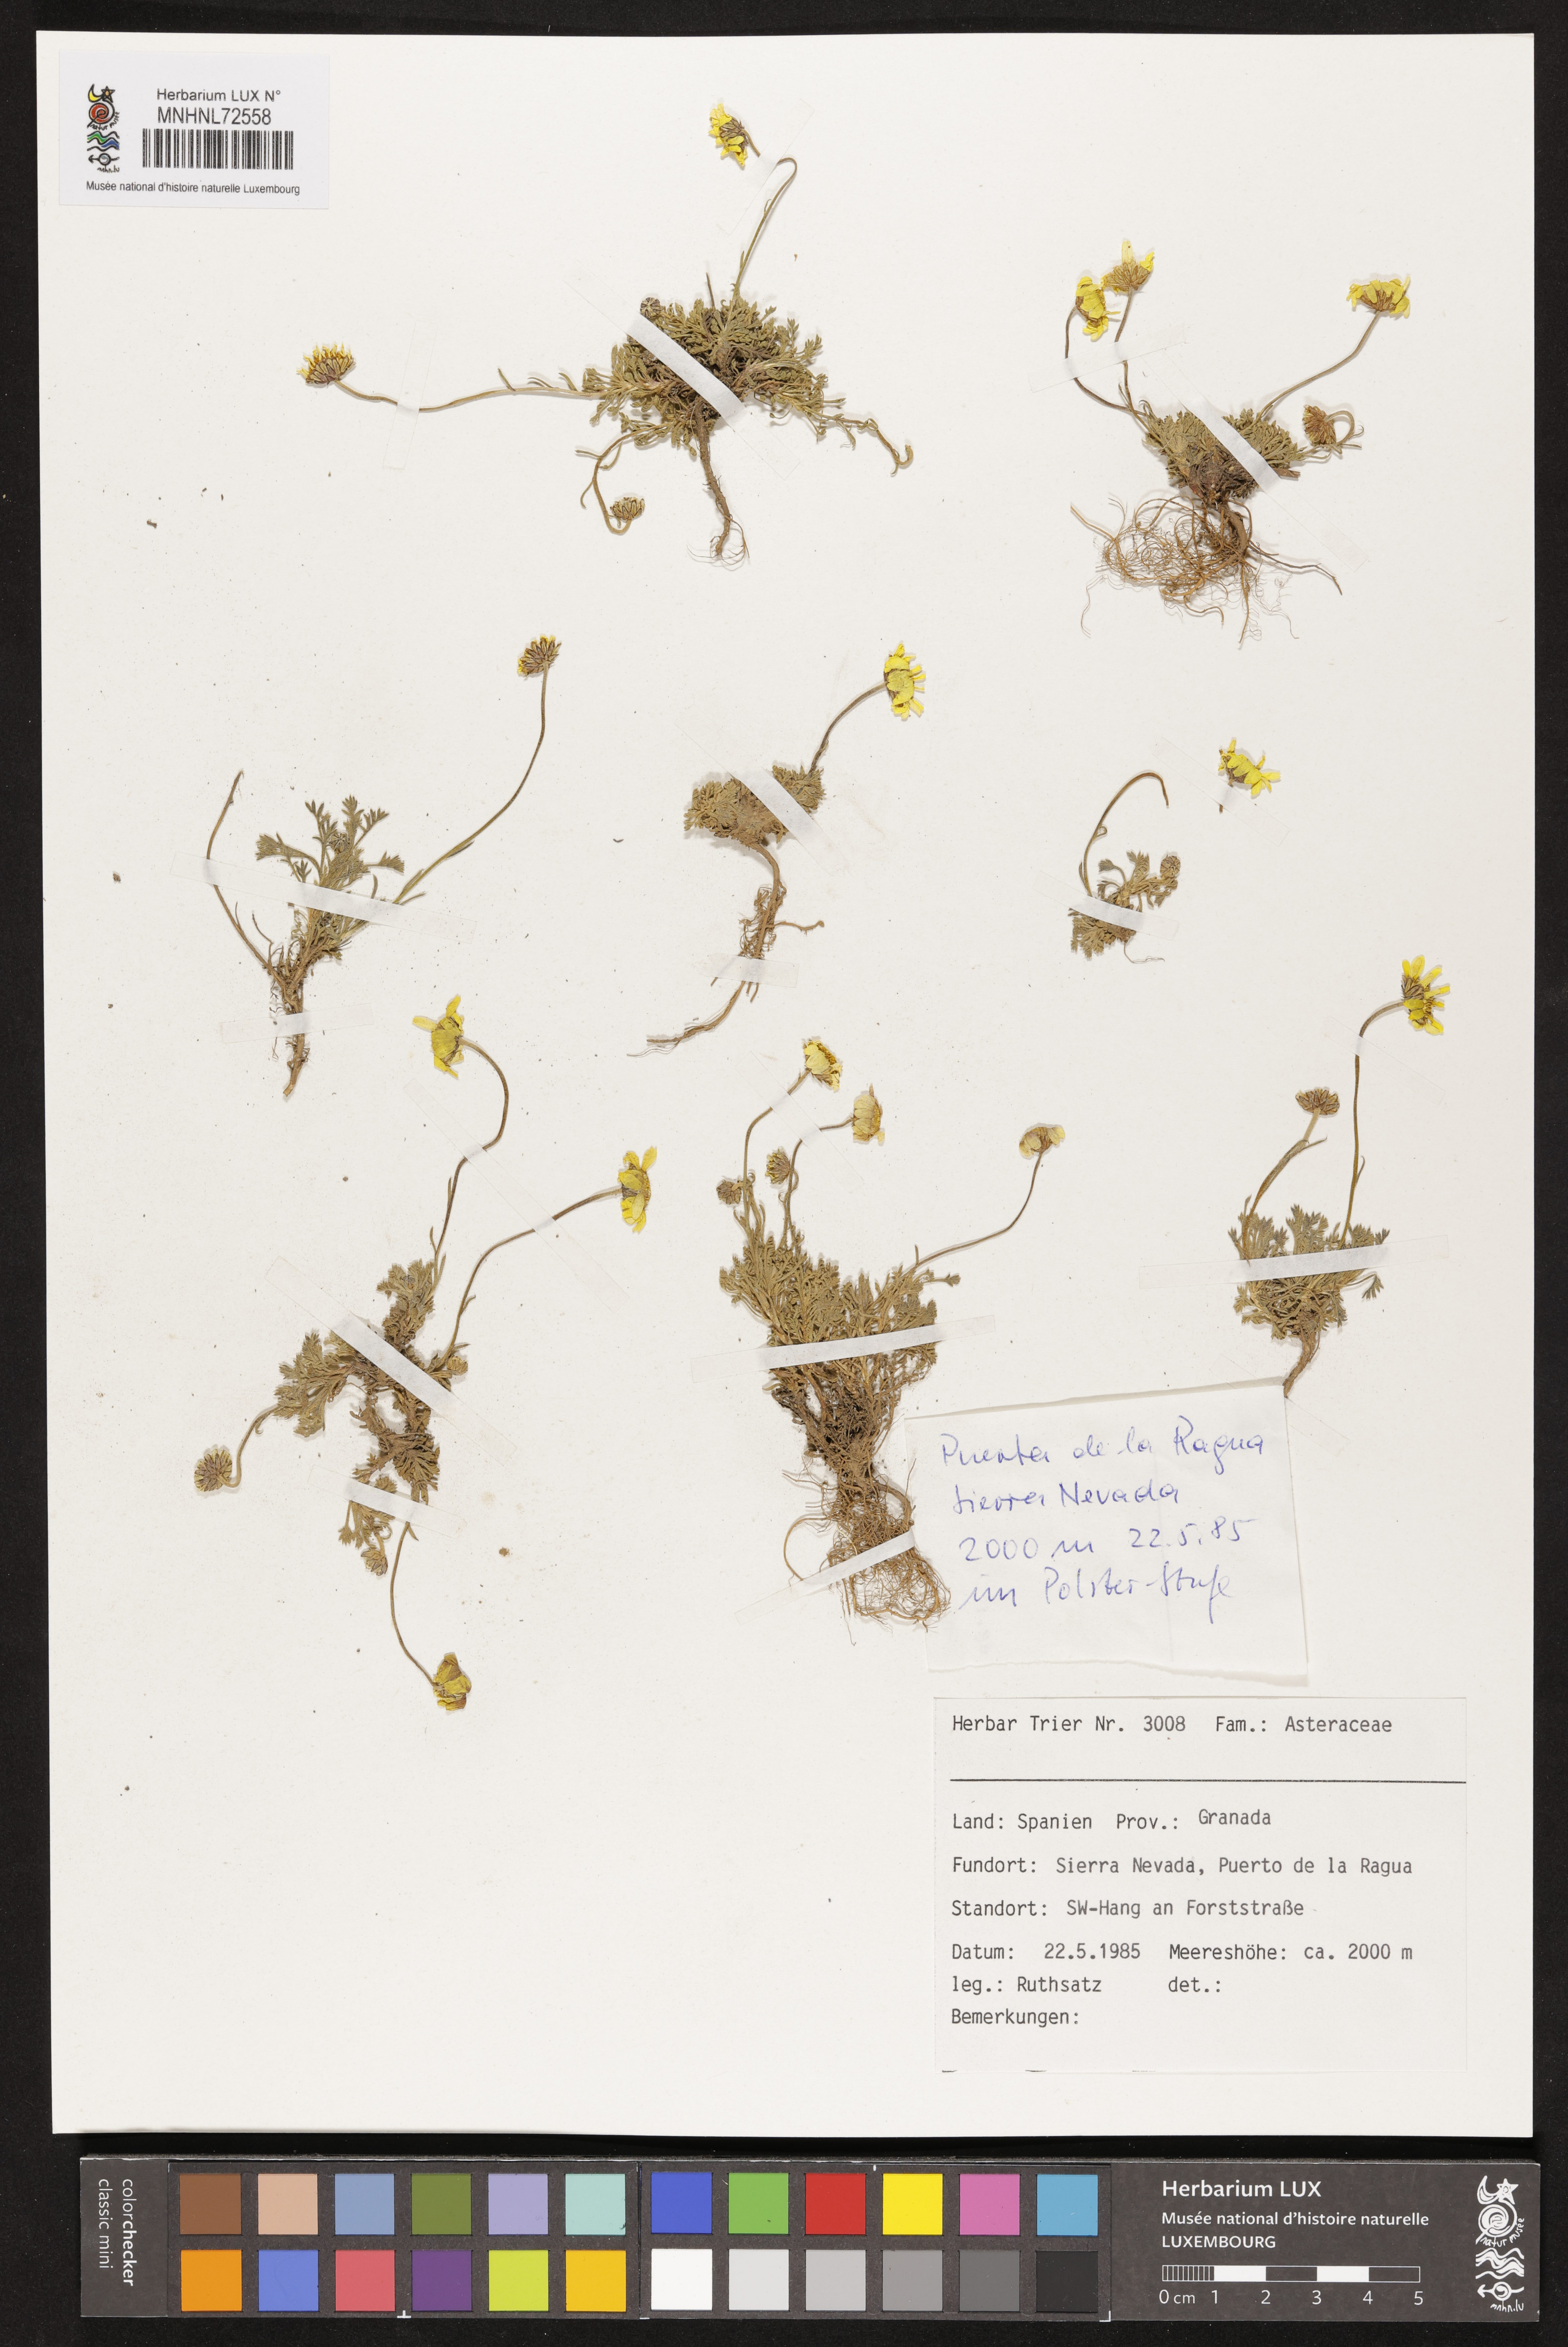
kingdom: Plantae
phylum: Tracheophyta
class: Magnoliopsida
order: Asterales
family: Asteraceae
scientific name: Asteraceae
